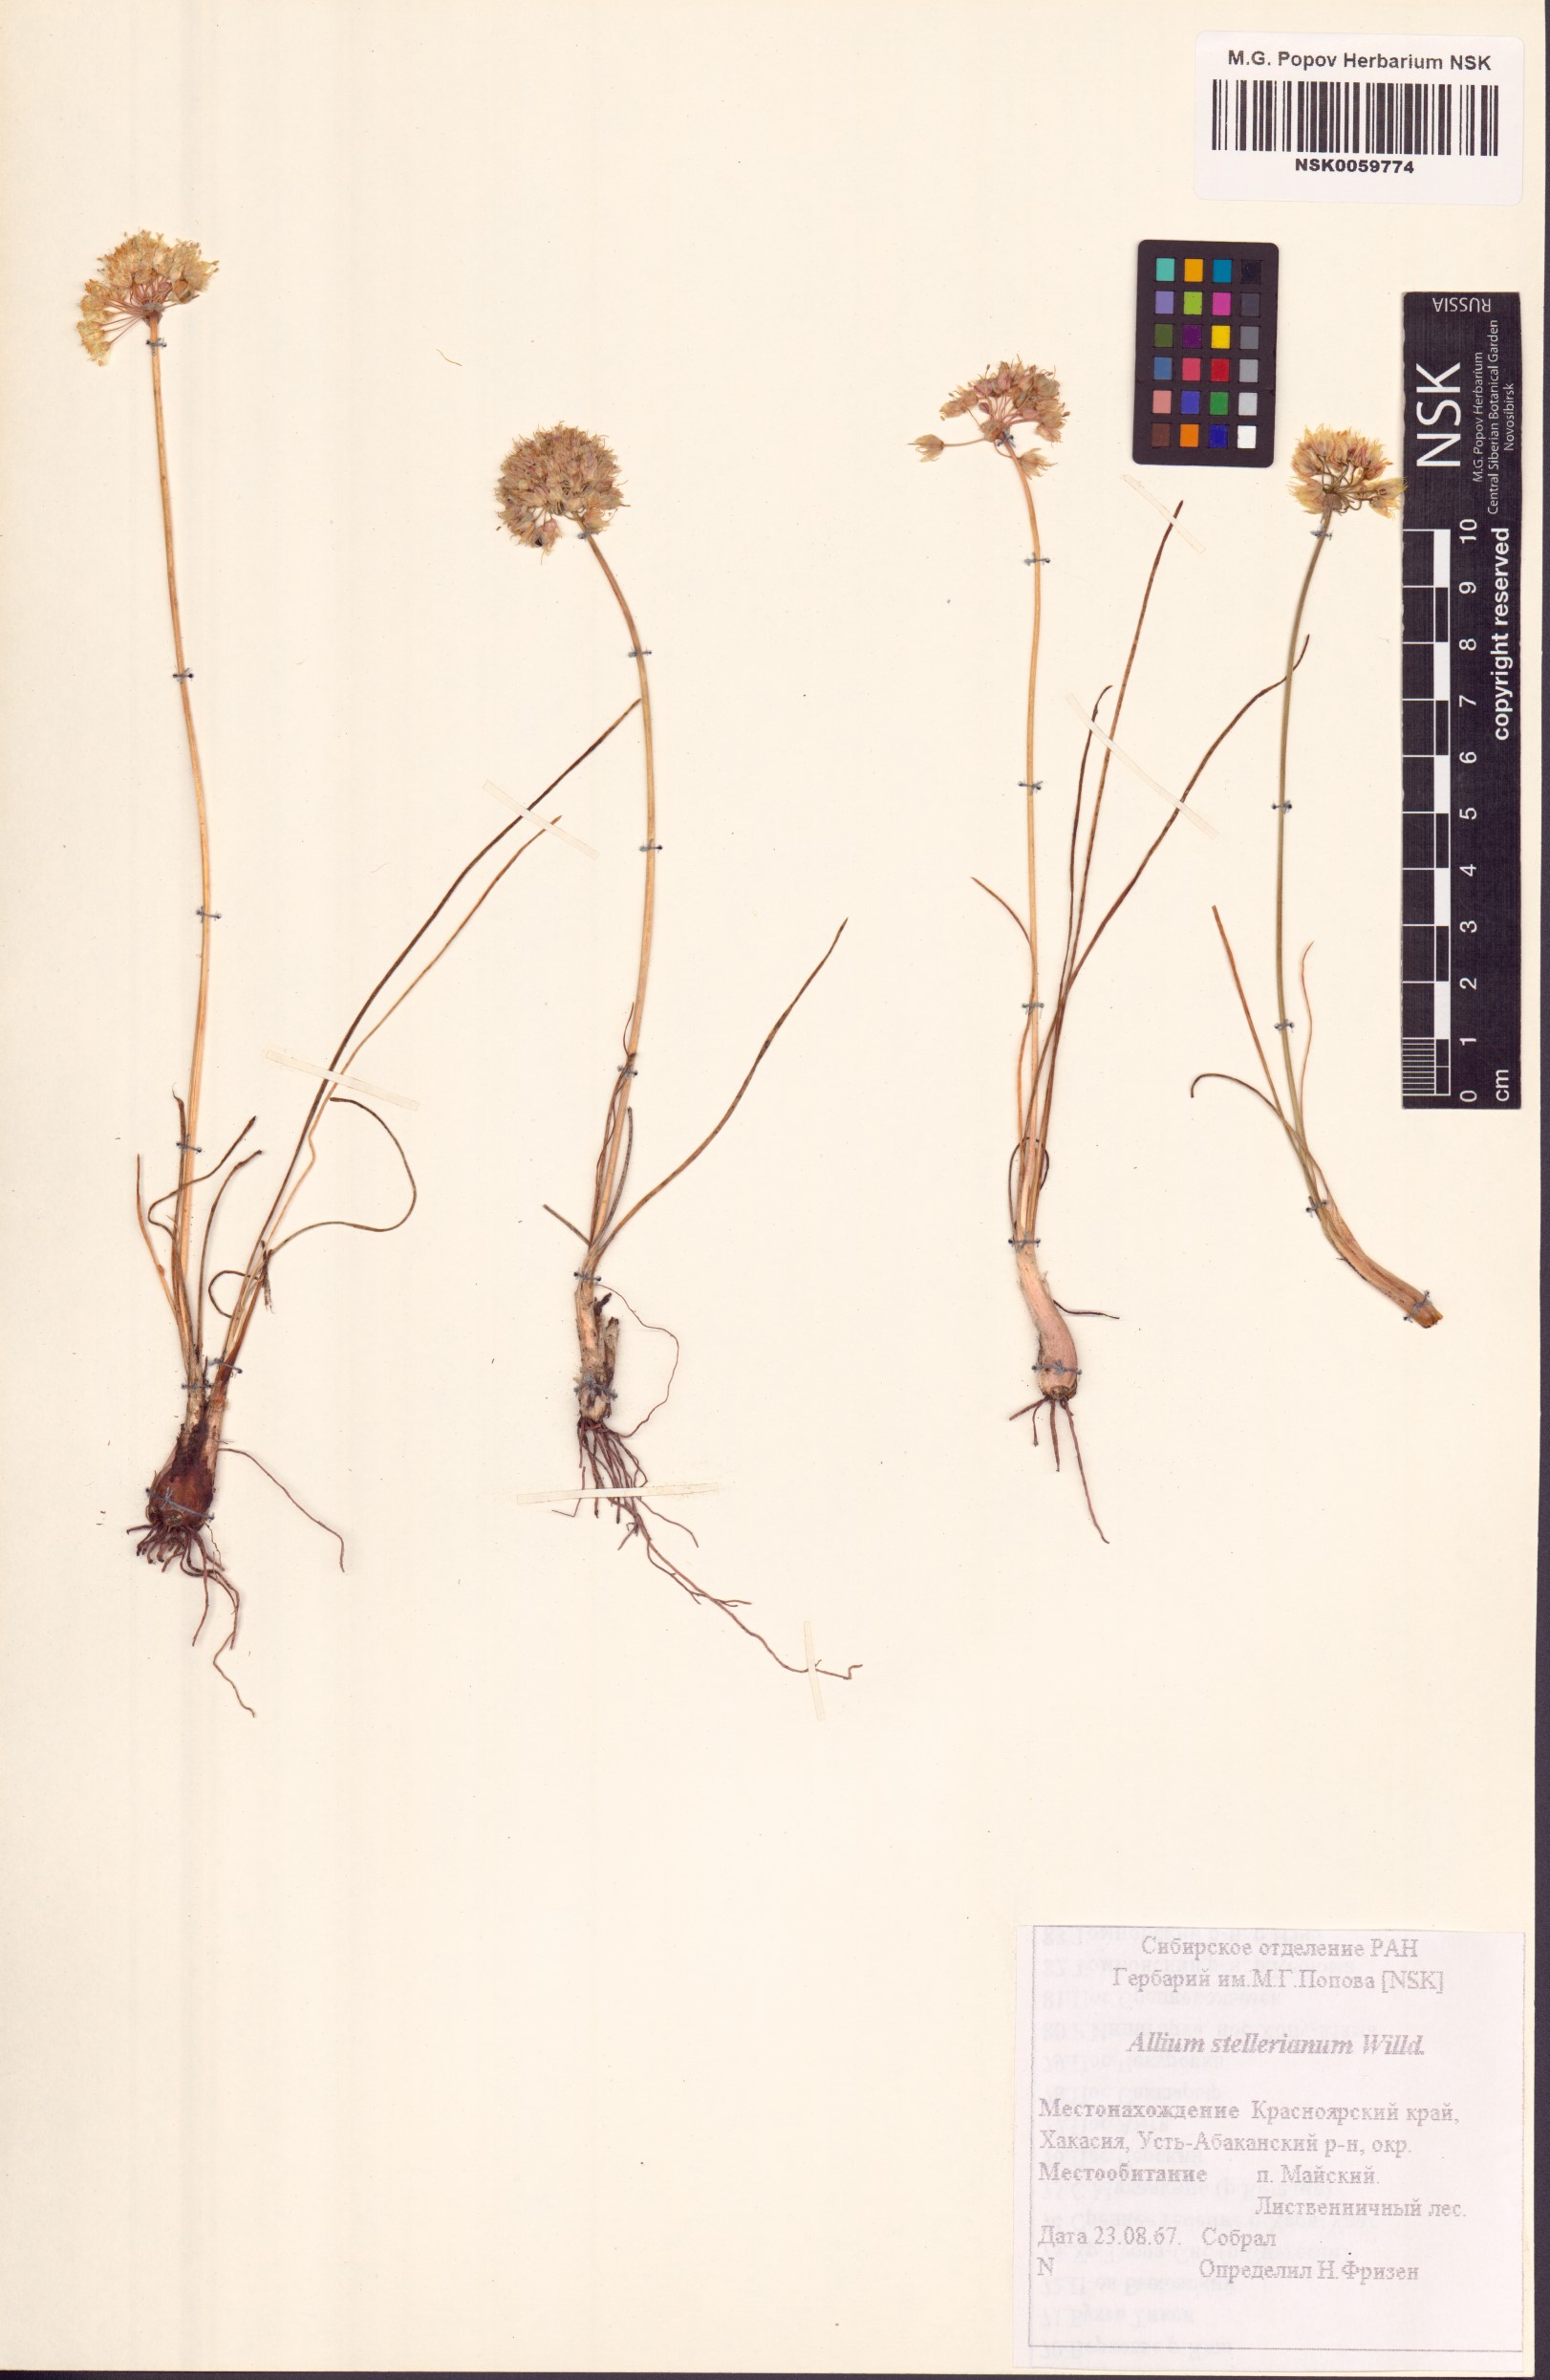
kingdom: Plantae
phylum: Tracheophyta
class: Liliopsida
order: Asparagales
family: Amaryllidaceae
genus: Allium
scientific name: Allium stellerianum
